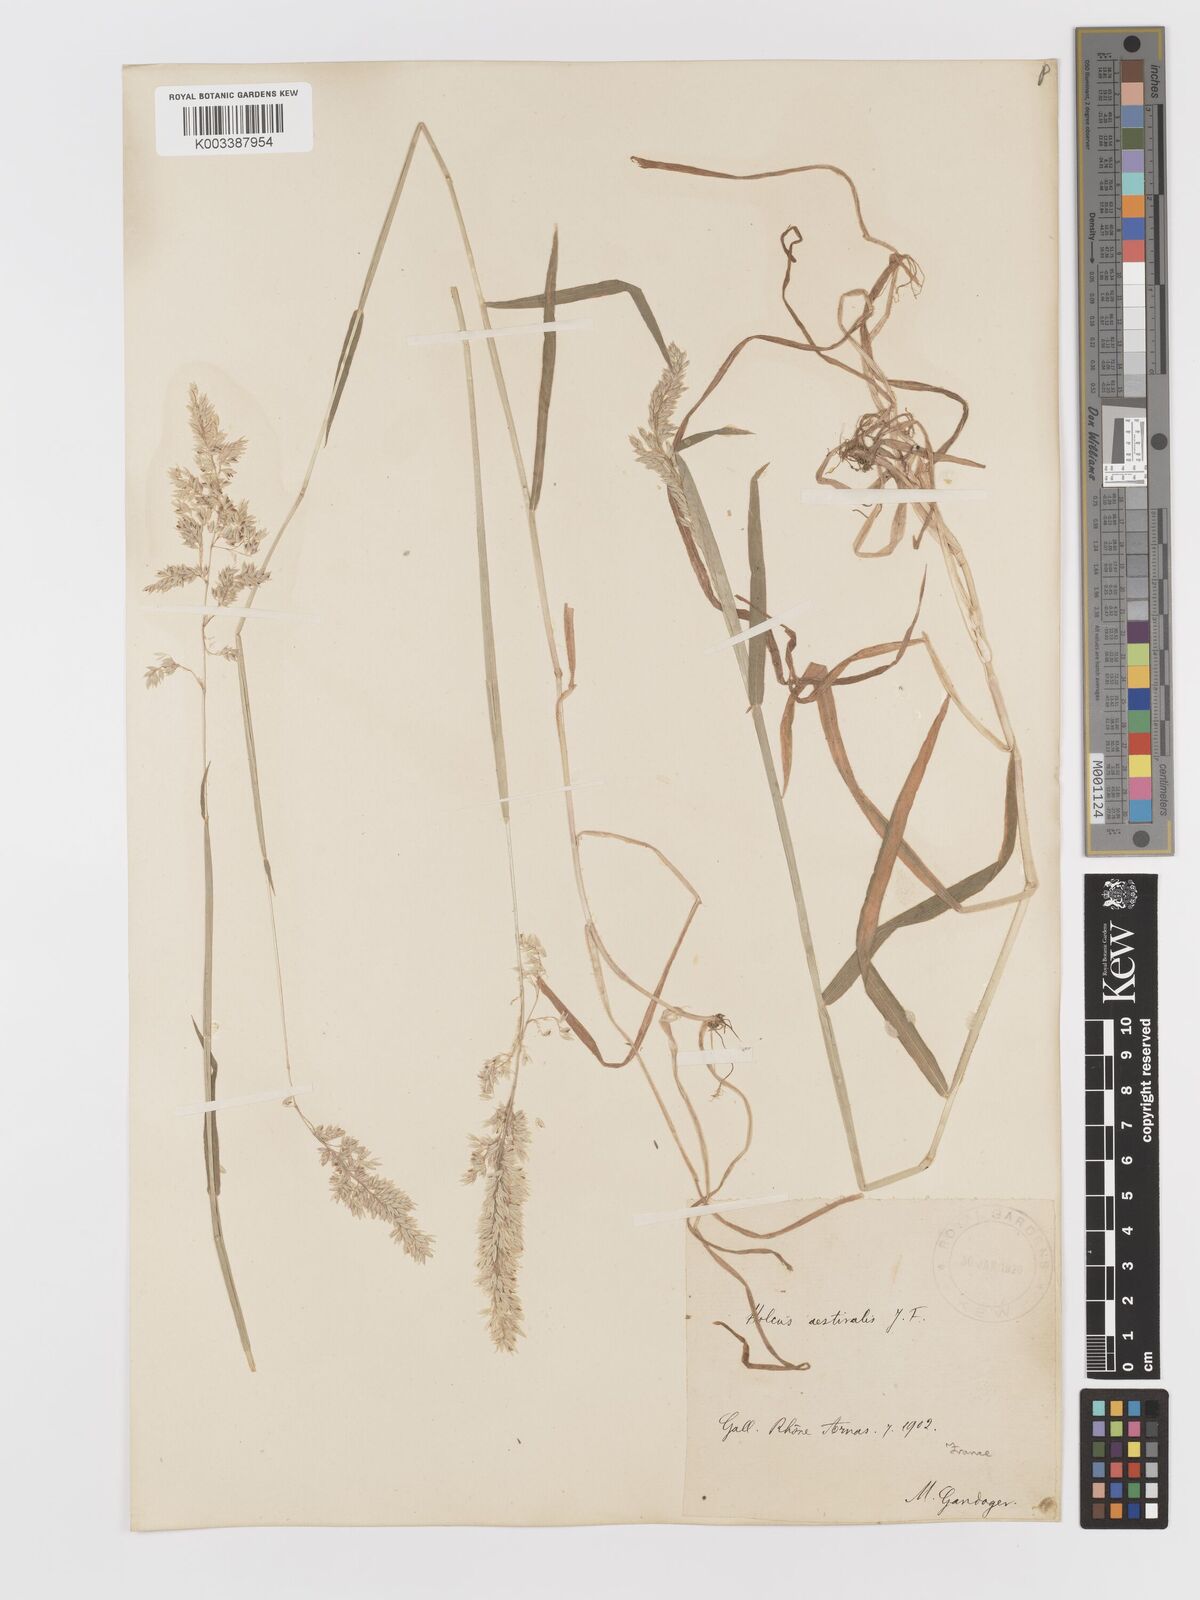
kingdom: Plantae
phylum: Tracheophyta
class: Liliopsida
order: Poales
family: Poaceae
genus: Holcus
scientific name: Holcus lanatus
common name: Yorkshire-fog
